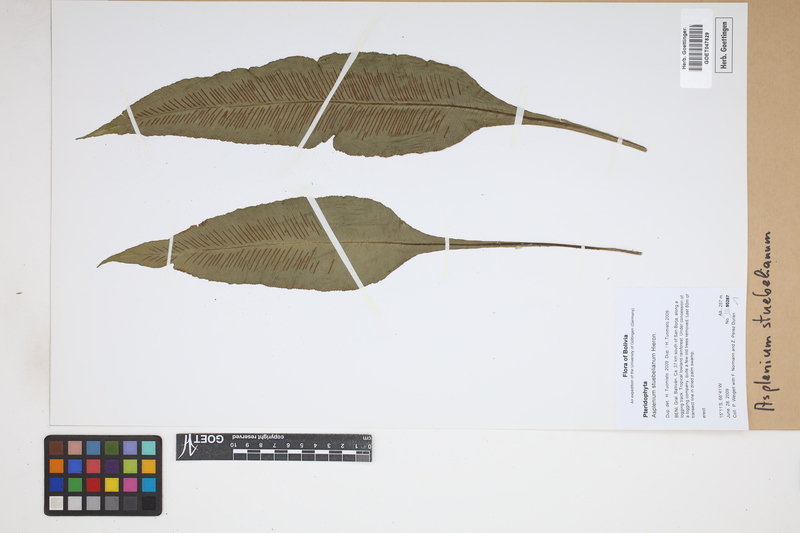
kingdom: Plantae
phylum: Tracheophyta
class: Polypodiopsida
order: Polypodiales
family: Aspleniaceae
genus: Asplenium
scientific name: Asplenium stuebelianum
